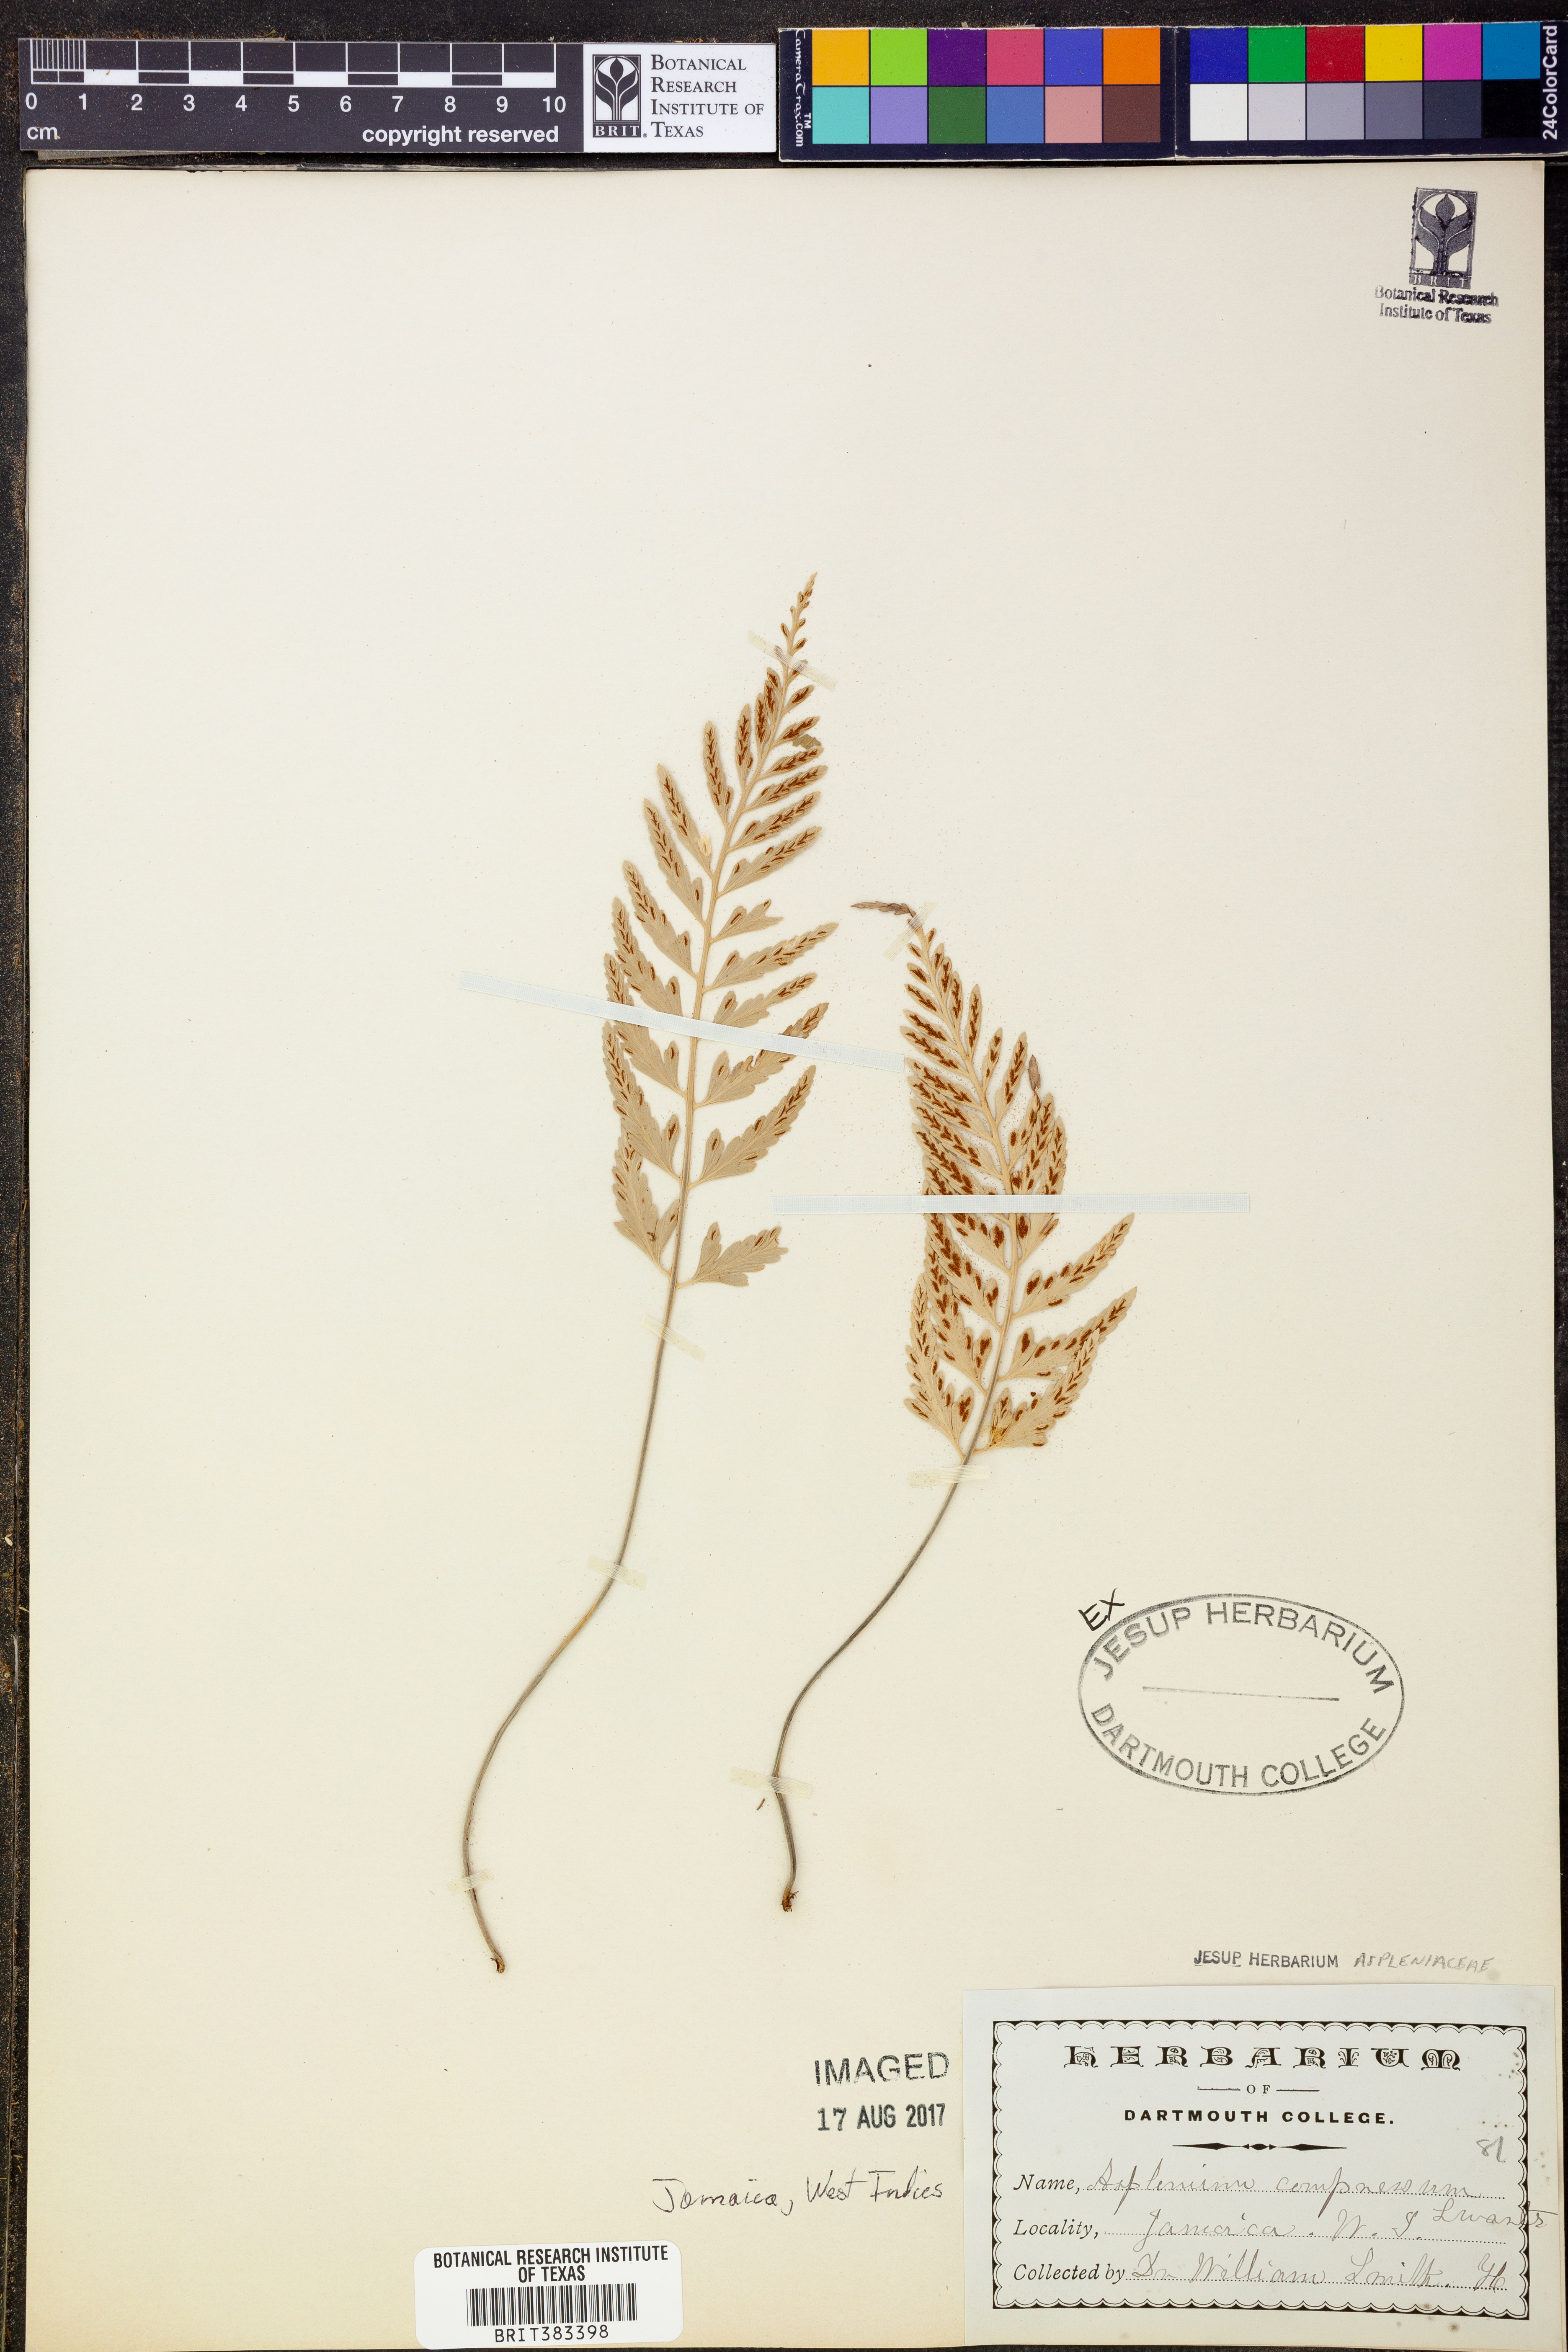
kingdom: Plantae
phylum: Tracheophyta
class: Polypodiopsida
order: Polypodiales
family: Aspleniaceae
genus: Asplenium
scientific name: Asplenium compressum
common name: Hen and chicks fern
